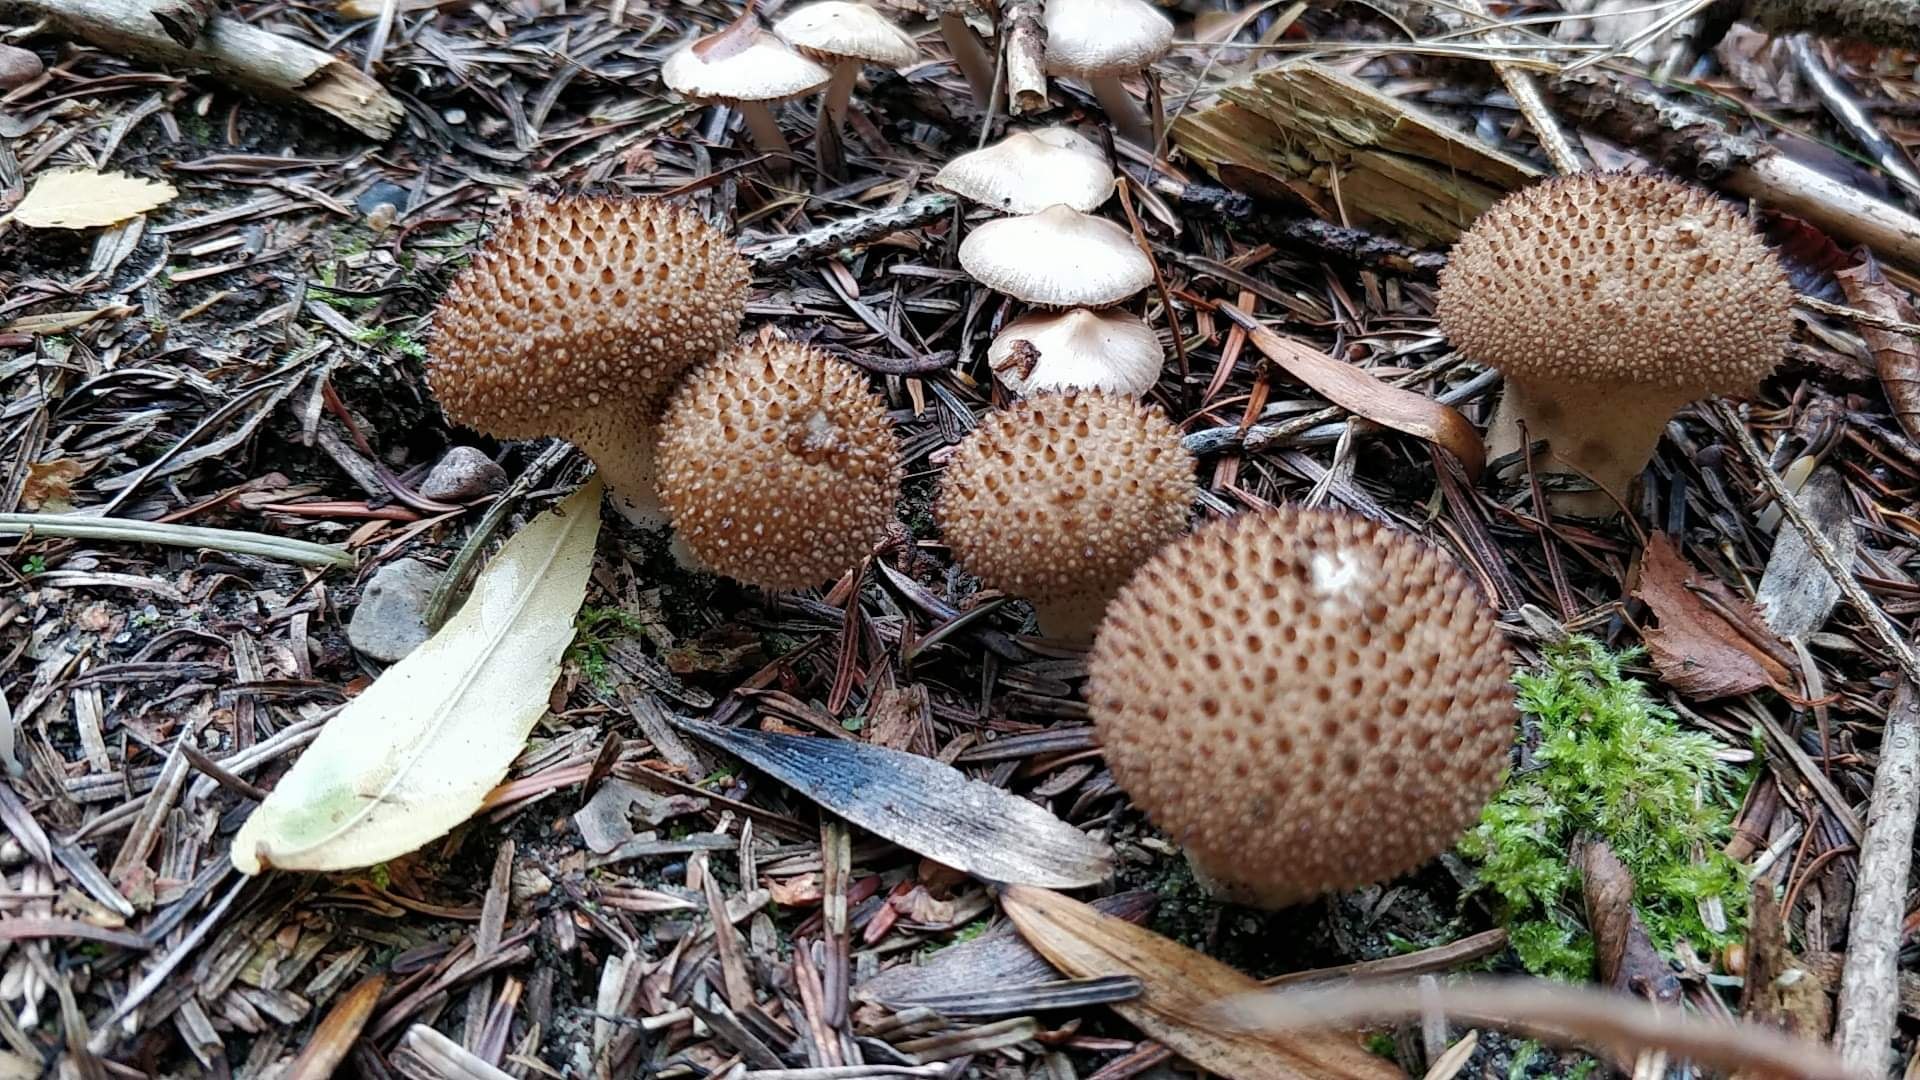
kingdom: Fungi
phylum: Basidiomycota
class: Agaricomycetes
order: Agaricales
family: Lycoperdaceae
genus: Lycoperdon
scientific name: Lycoperdon nigrescens
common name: sortagtig støvbold
